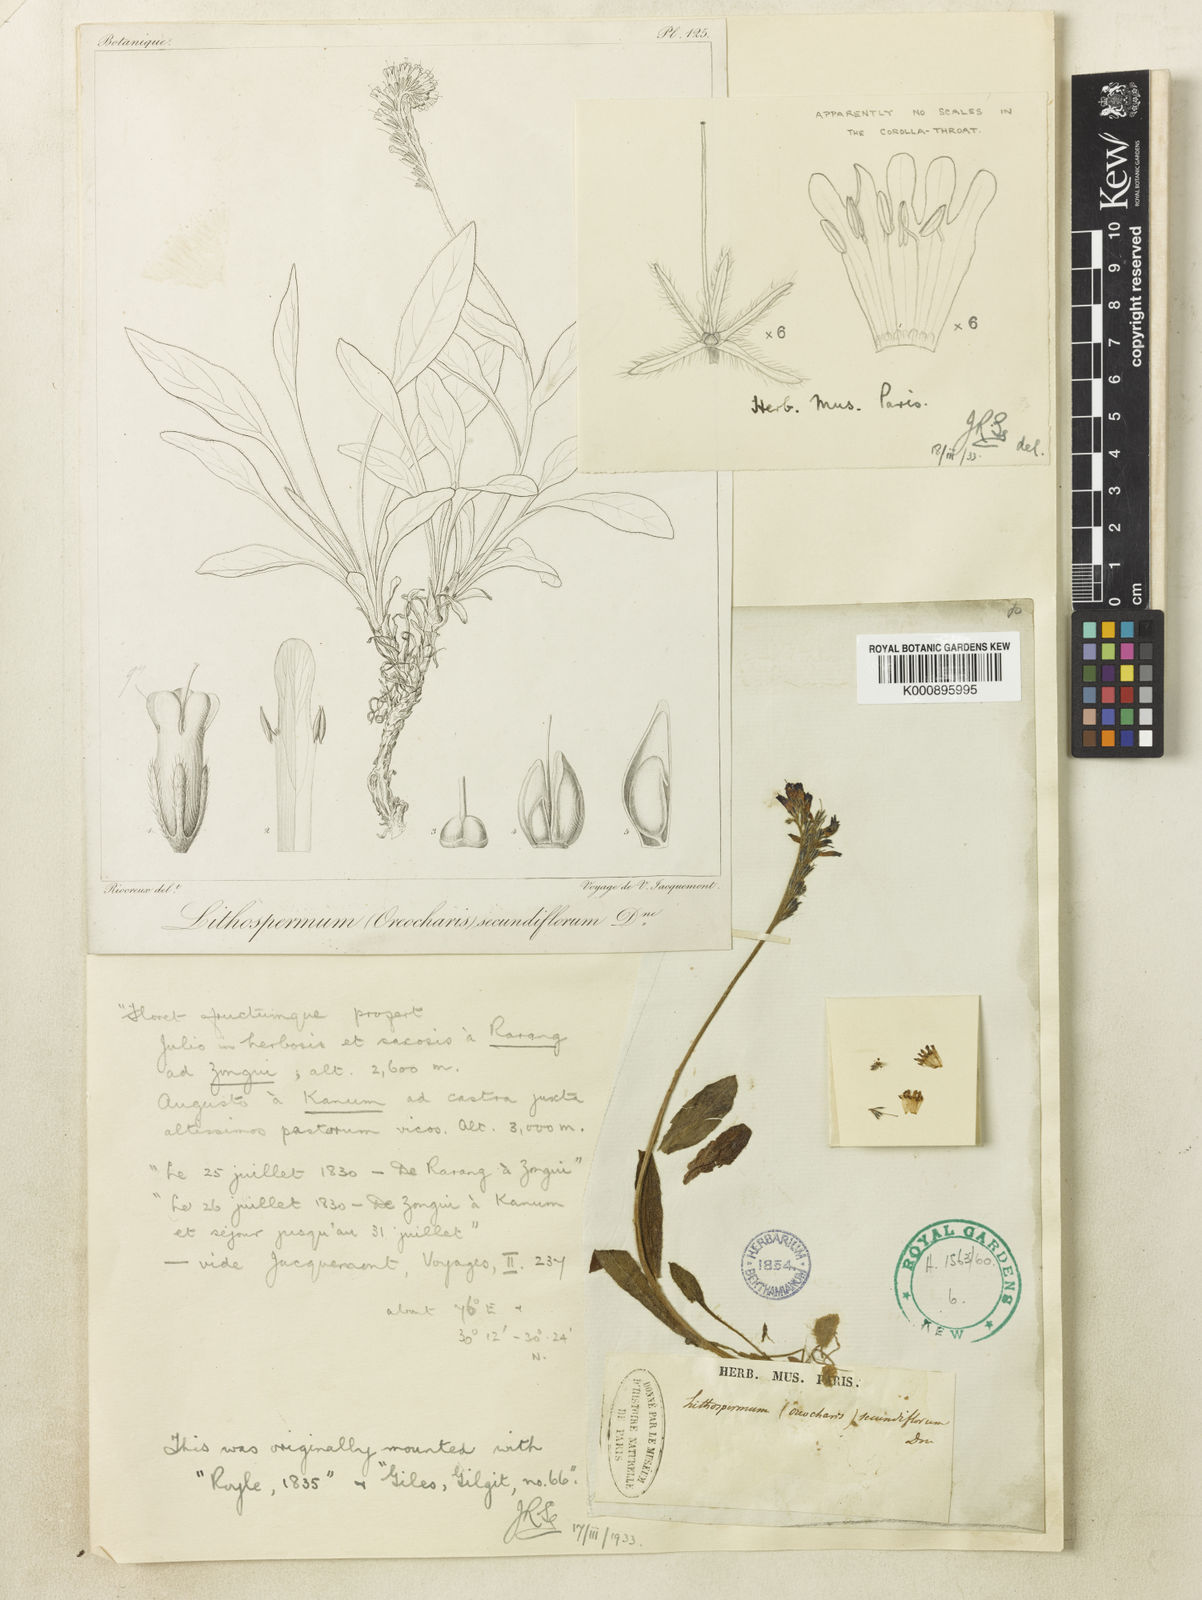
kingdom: Plantae
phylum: Tracheophyta
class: Magnoliopsida
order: Boraginales
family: Boraginaceae
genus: Decalepidanthus
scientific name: Decalepidanthus echioides
